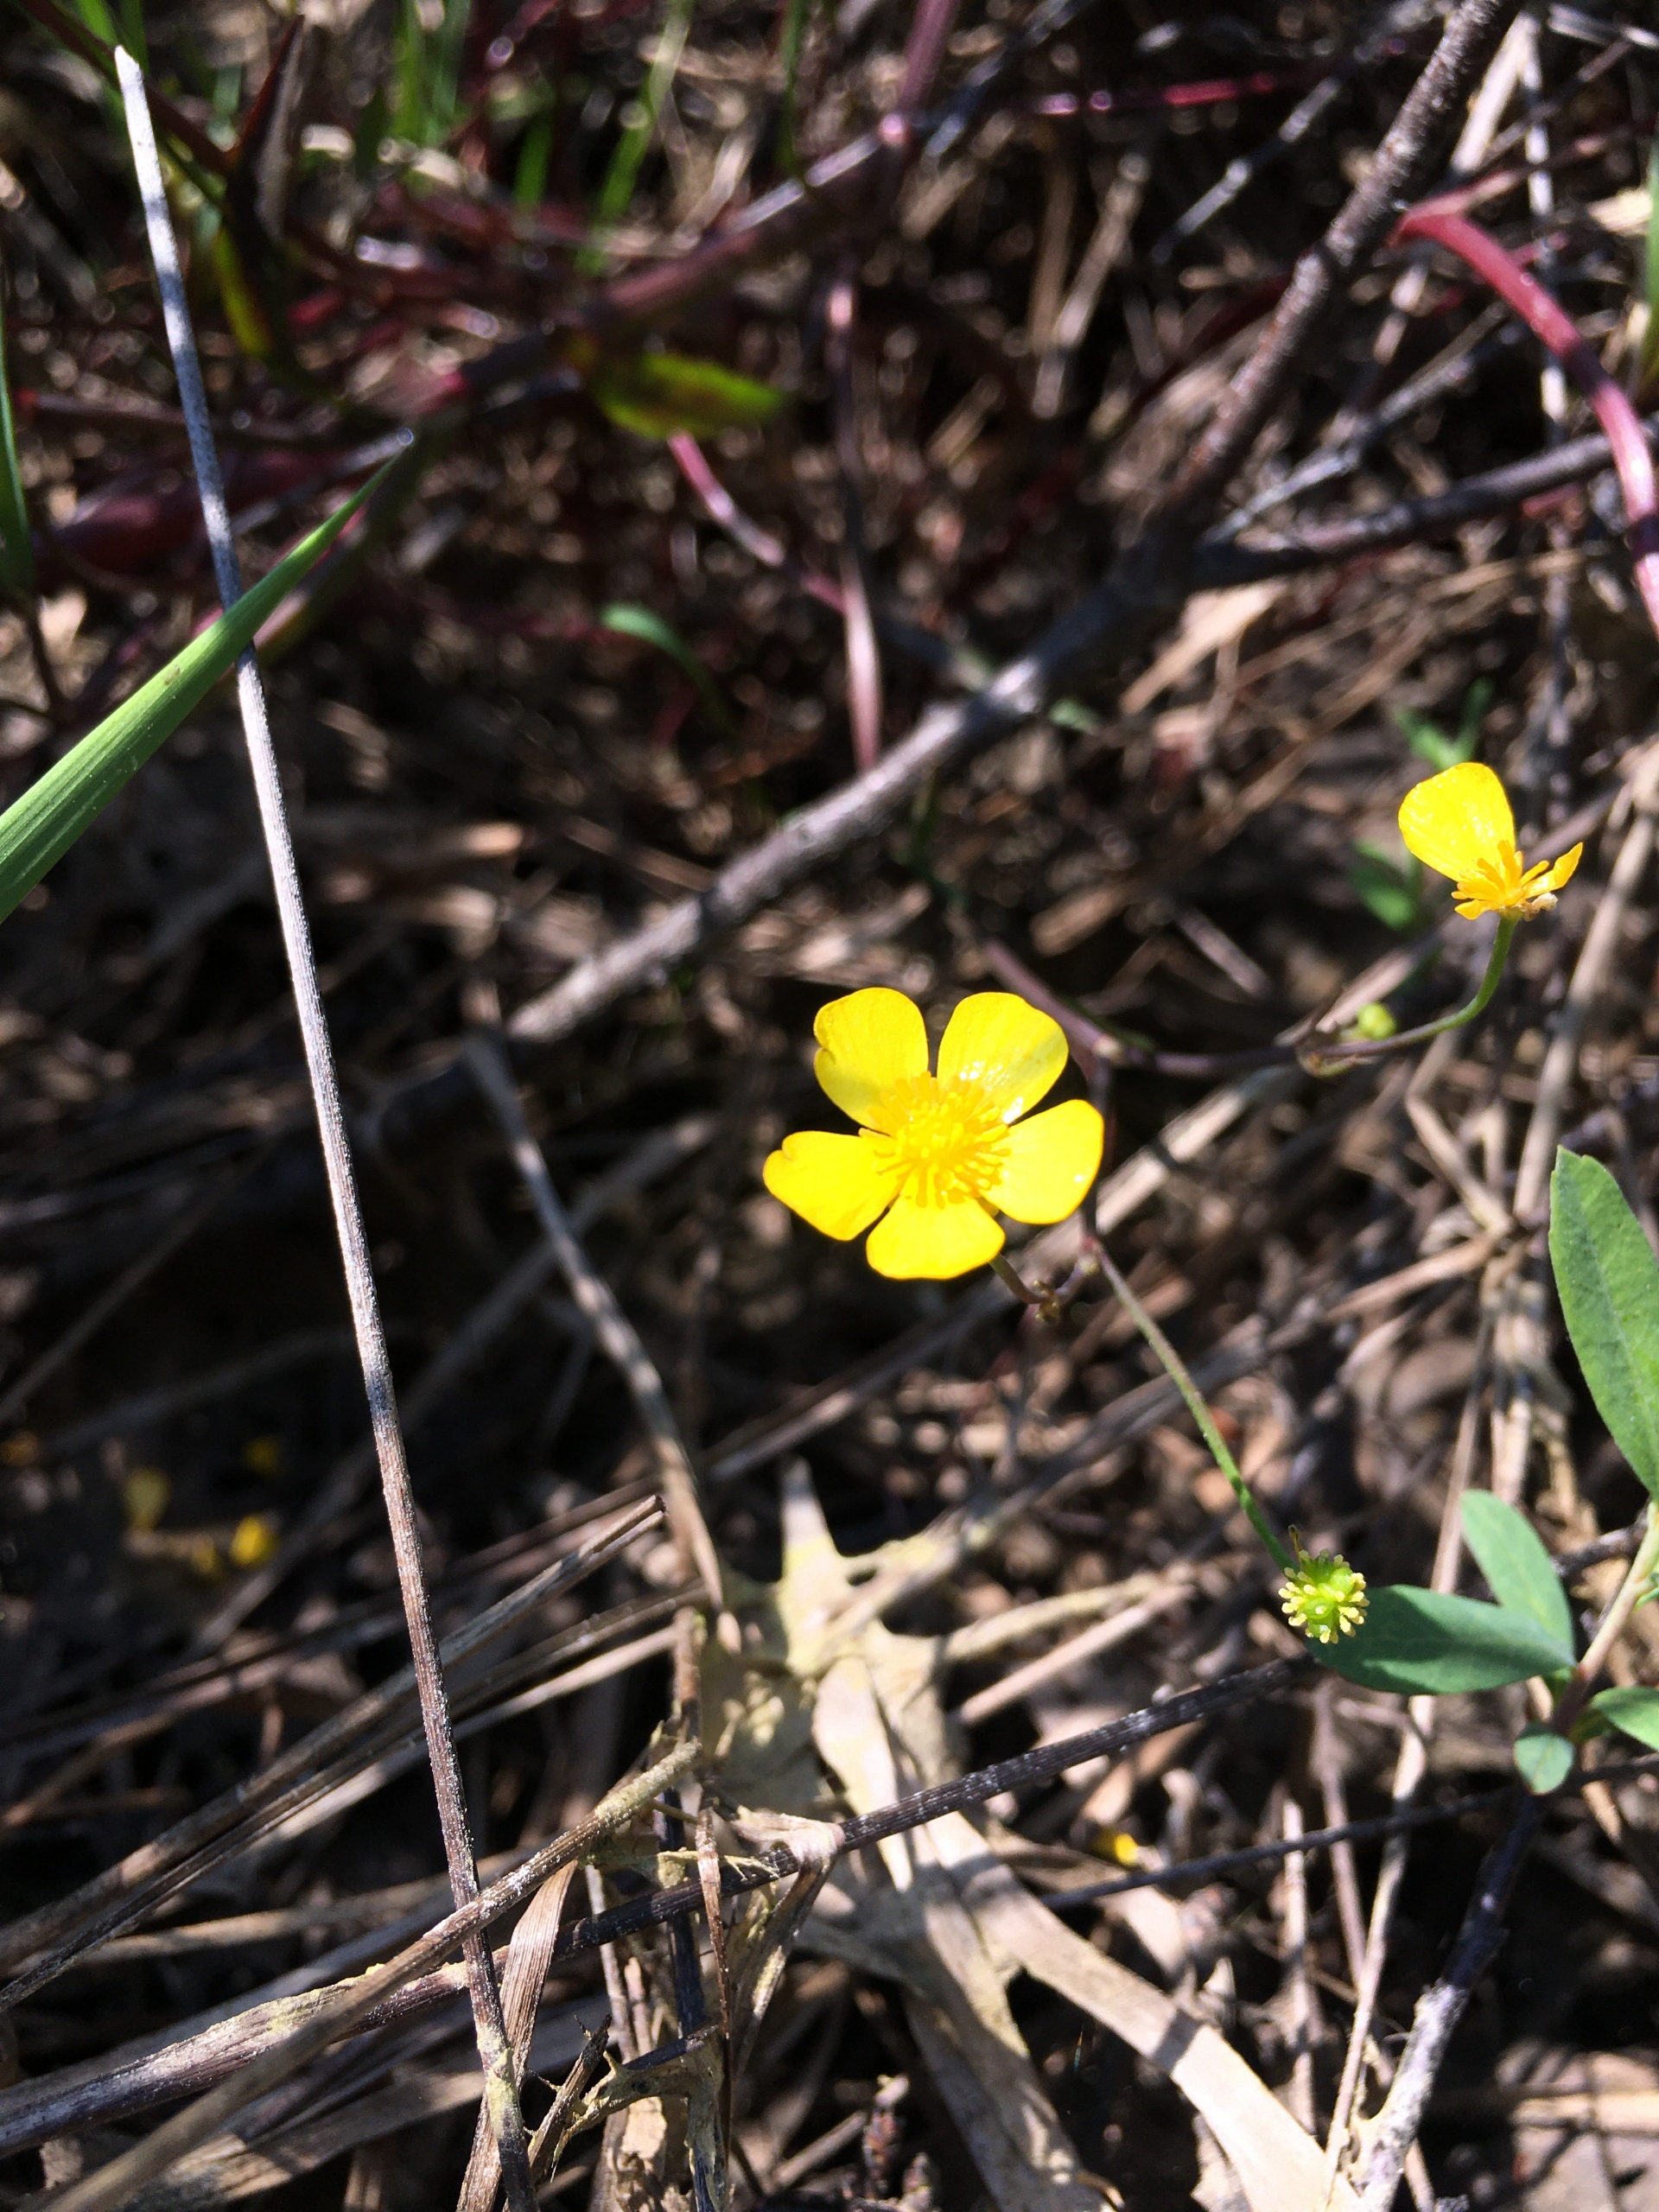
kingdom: Plantae
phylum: Tracheophyta
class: Magnoliopsida
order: Ranunculales
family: Ranunculaceae
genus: Ranunculus
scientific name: Ranunculus flammula
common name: Kær-ranunkel
